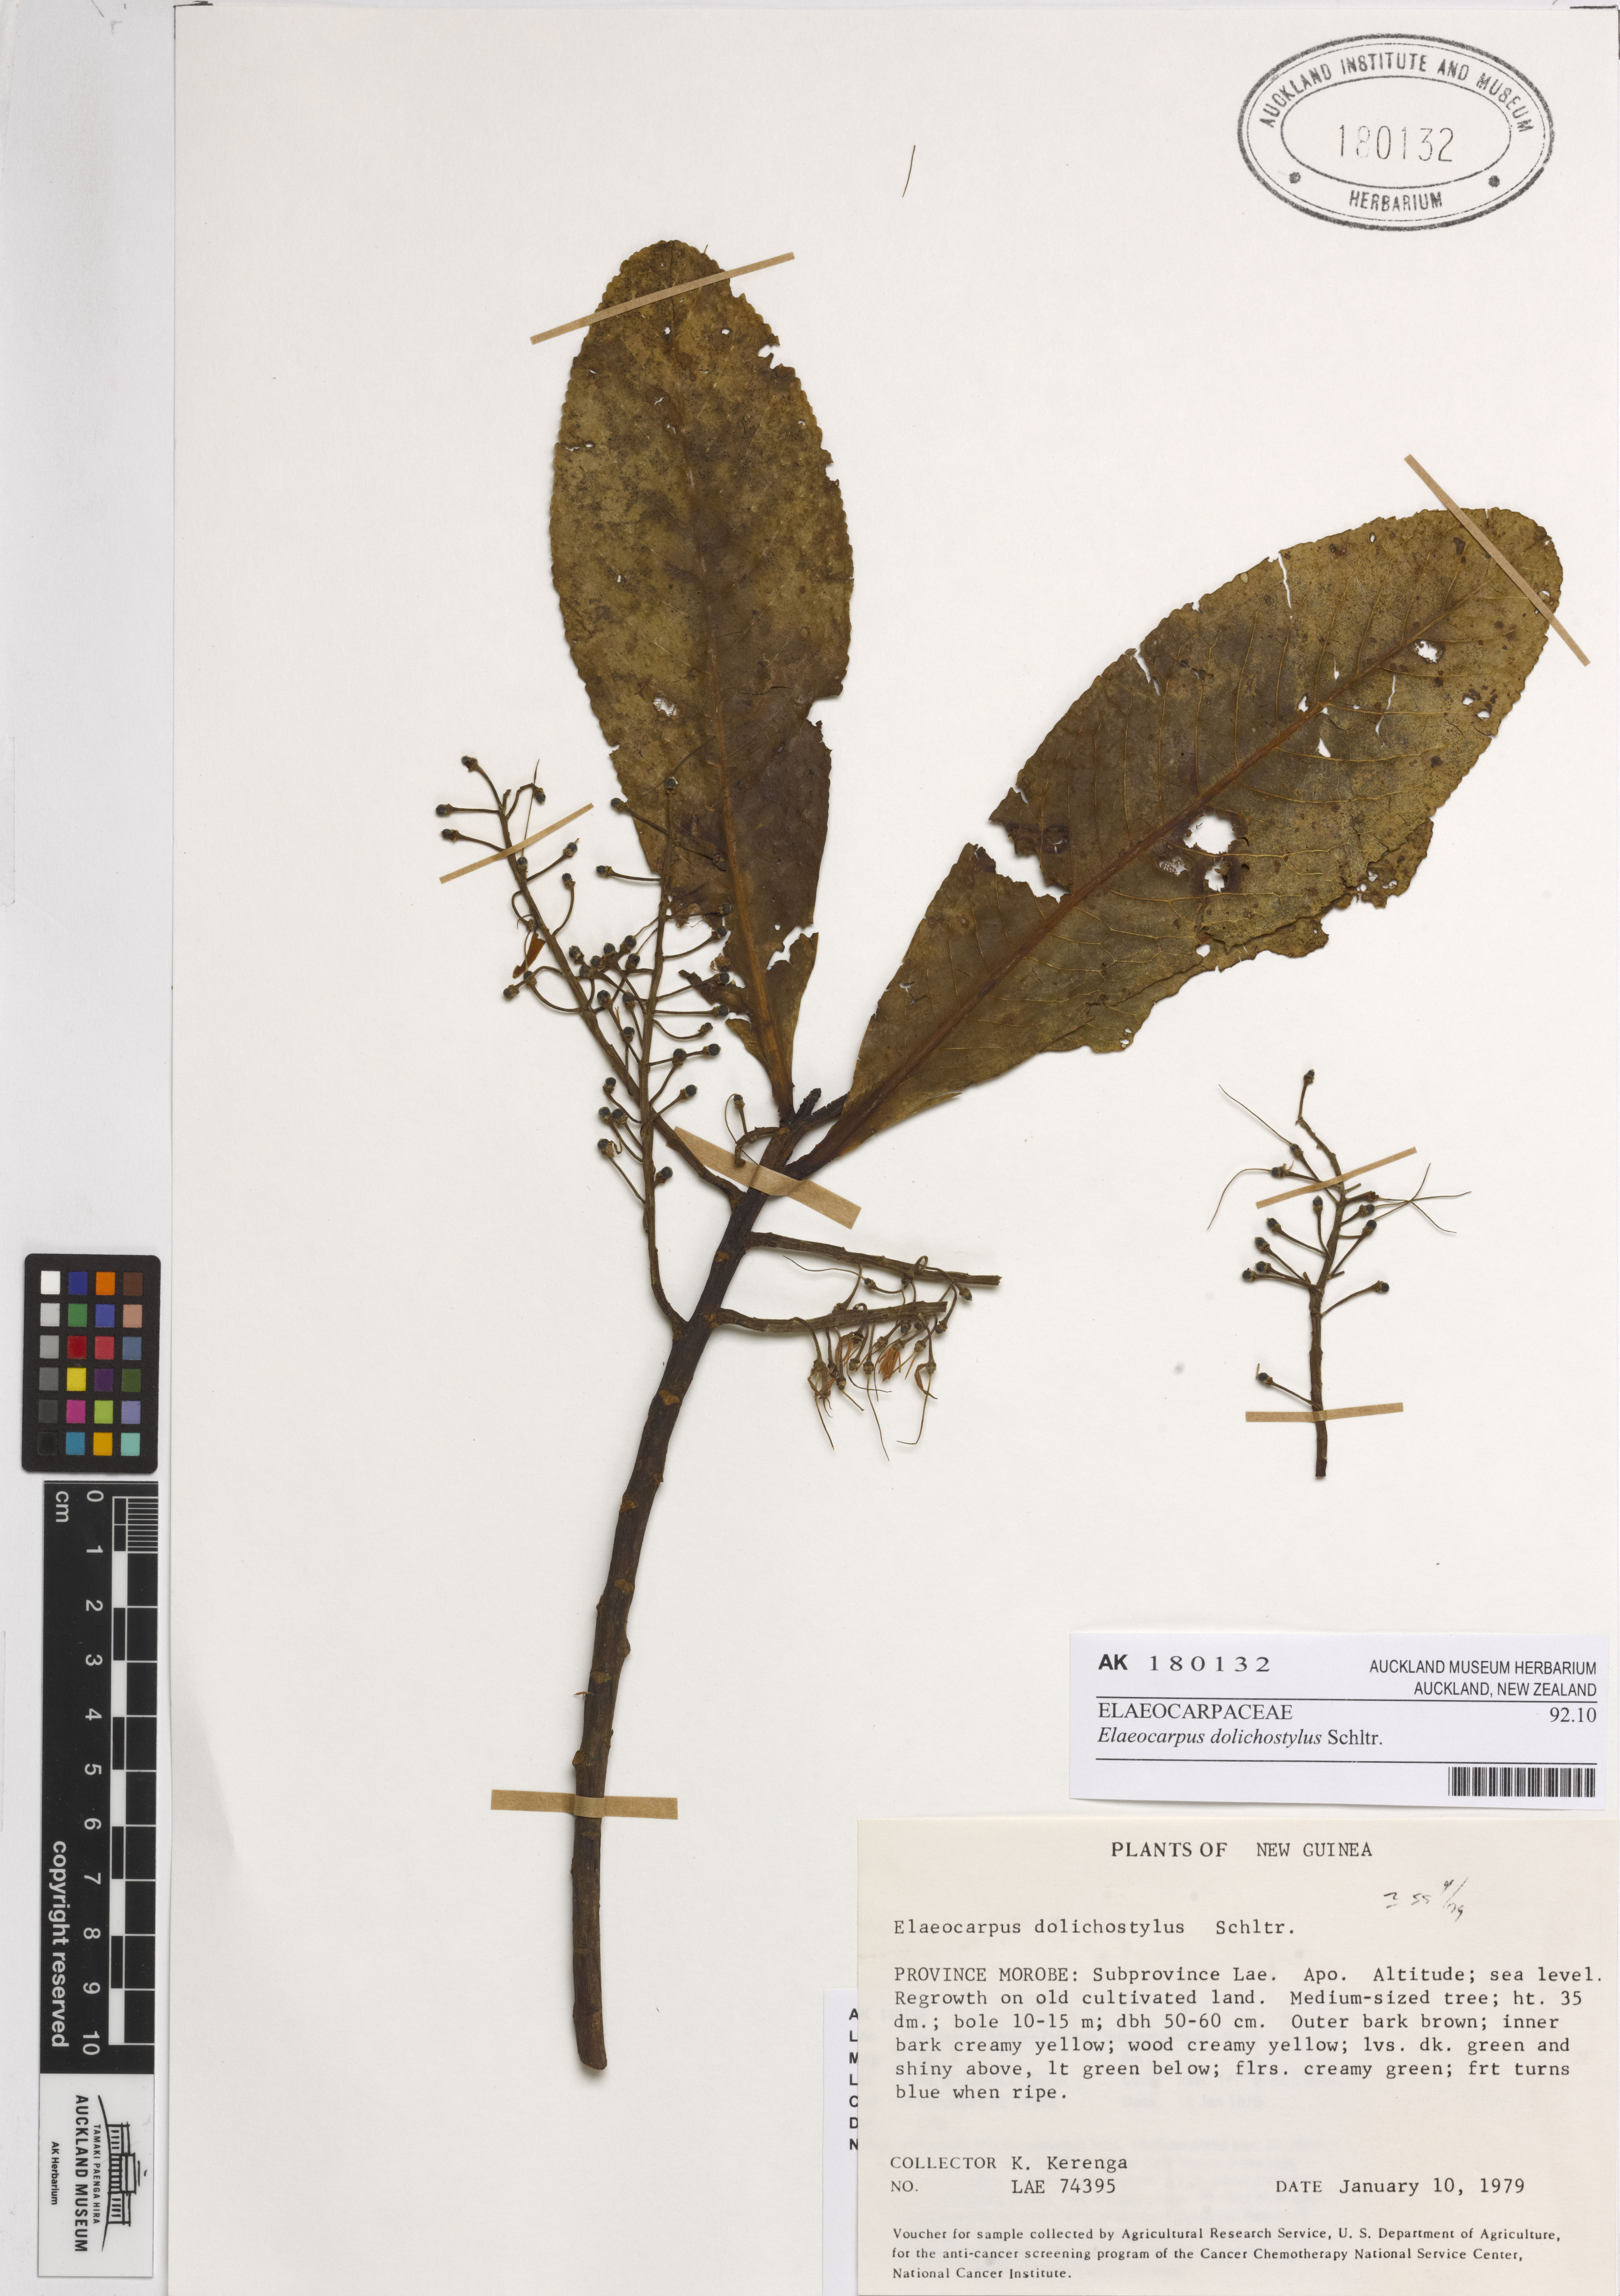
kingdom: Plantae
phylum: Tracheophyta
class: Magnoliopsida
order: Oxalidales
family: Elaeocarpaceae
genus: Elaeocarpus
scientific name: Elaeocarpus dolichostylus
